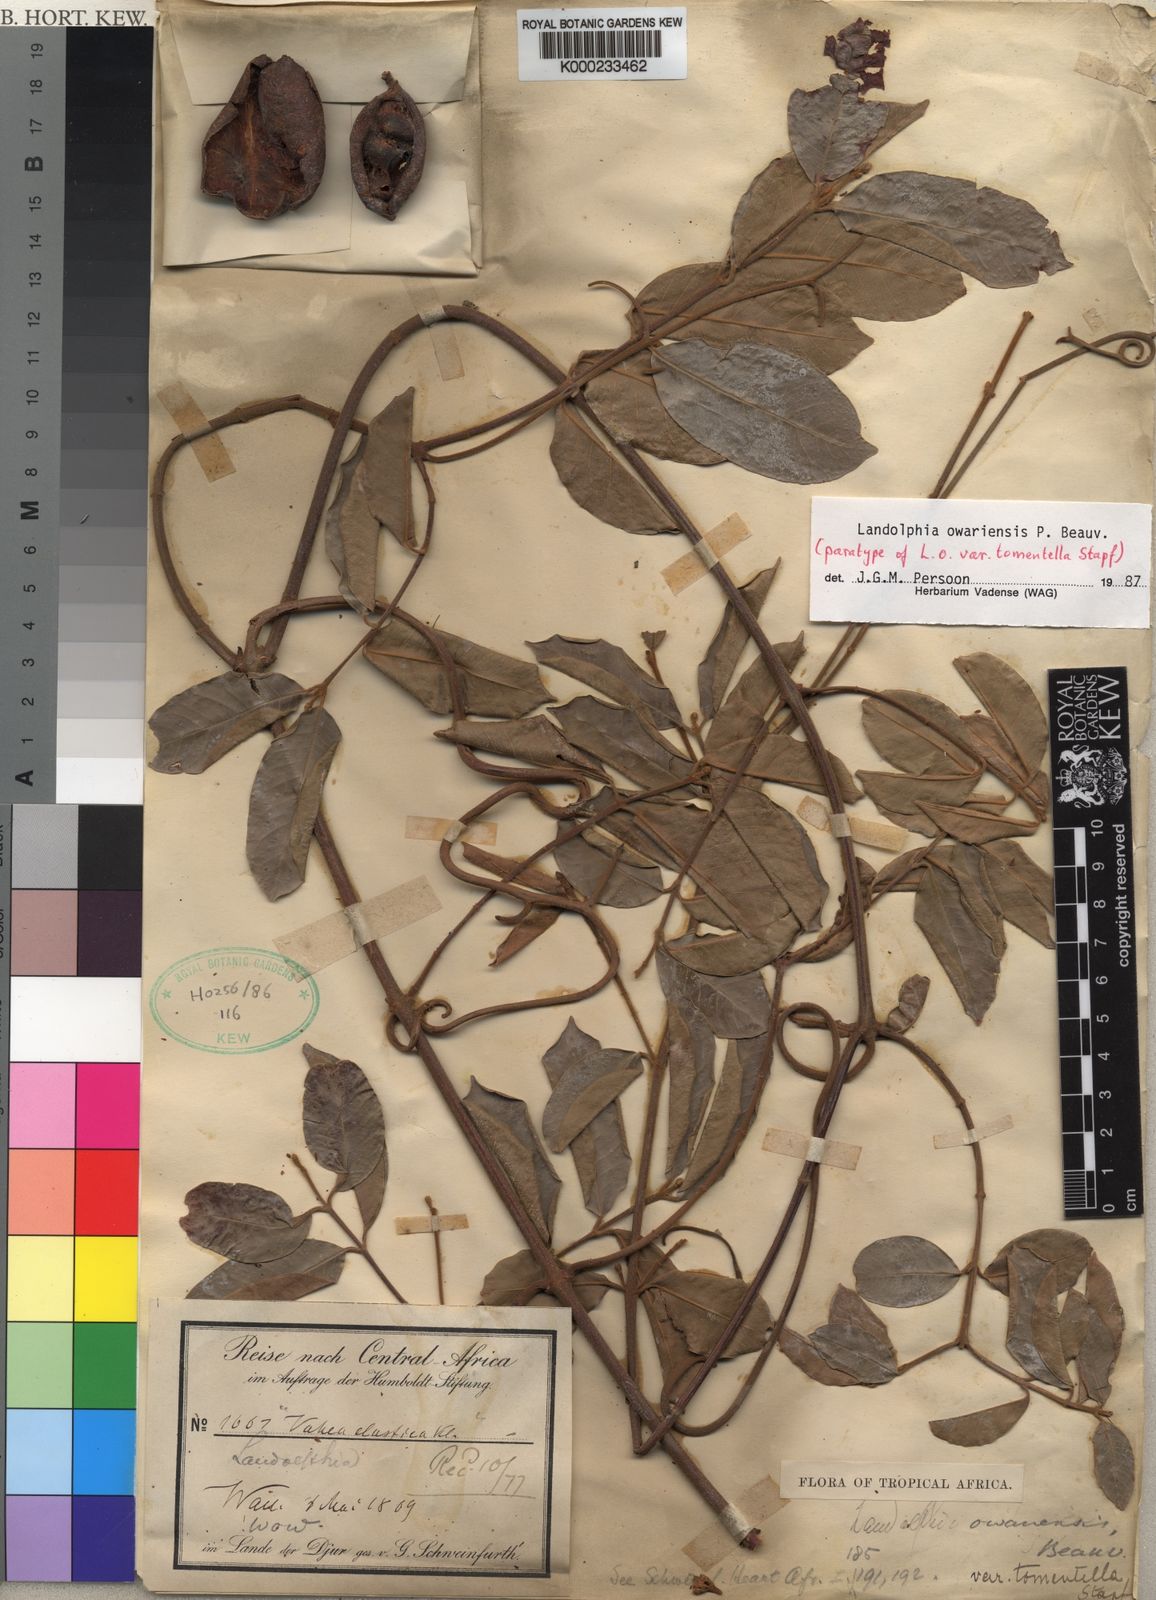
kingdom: Plantae
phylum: Tracheophyta
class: Magnoliopsida
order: Gentianales
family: Apocynaceae
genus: Landolphia
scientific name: Landolphia owariensis
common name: White-ball-rubber
